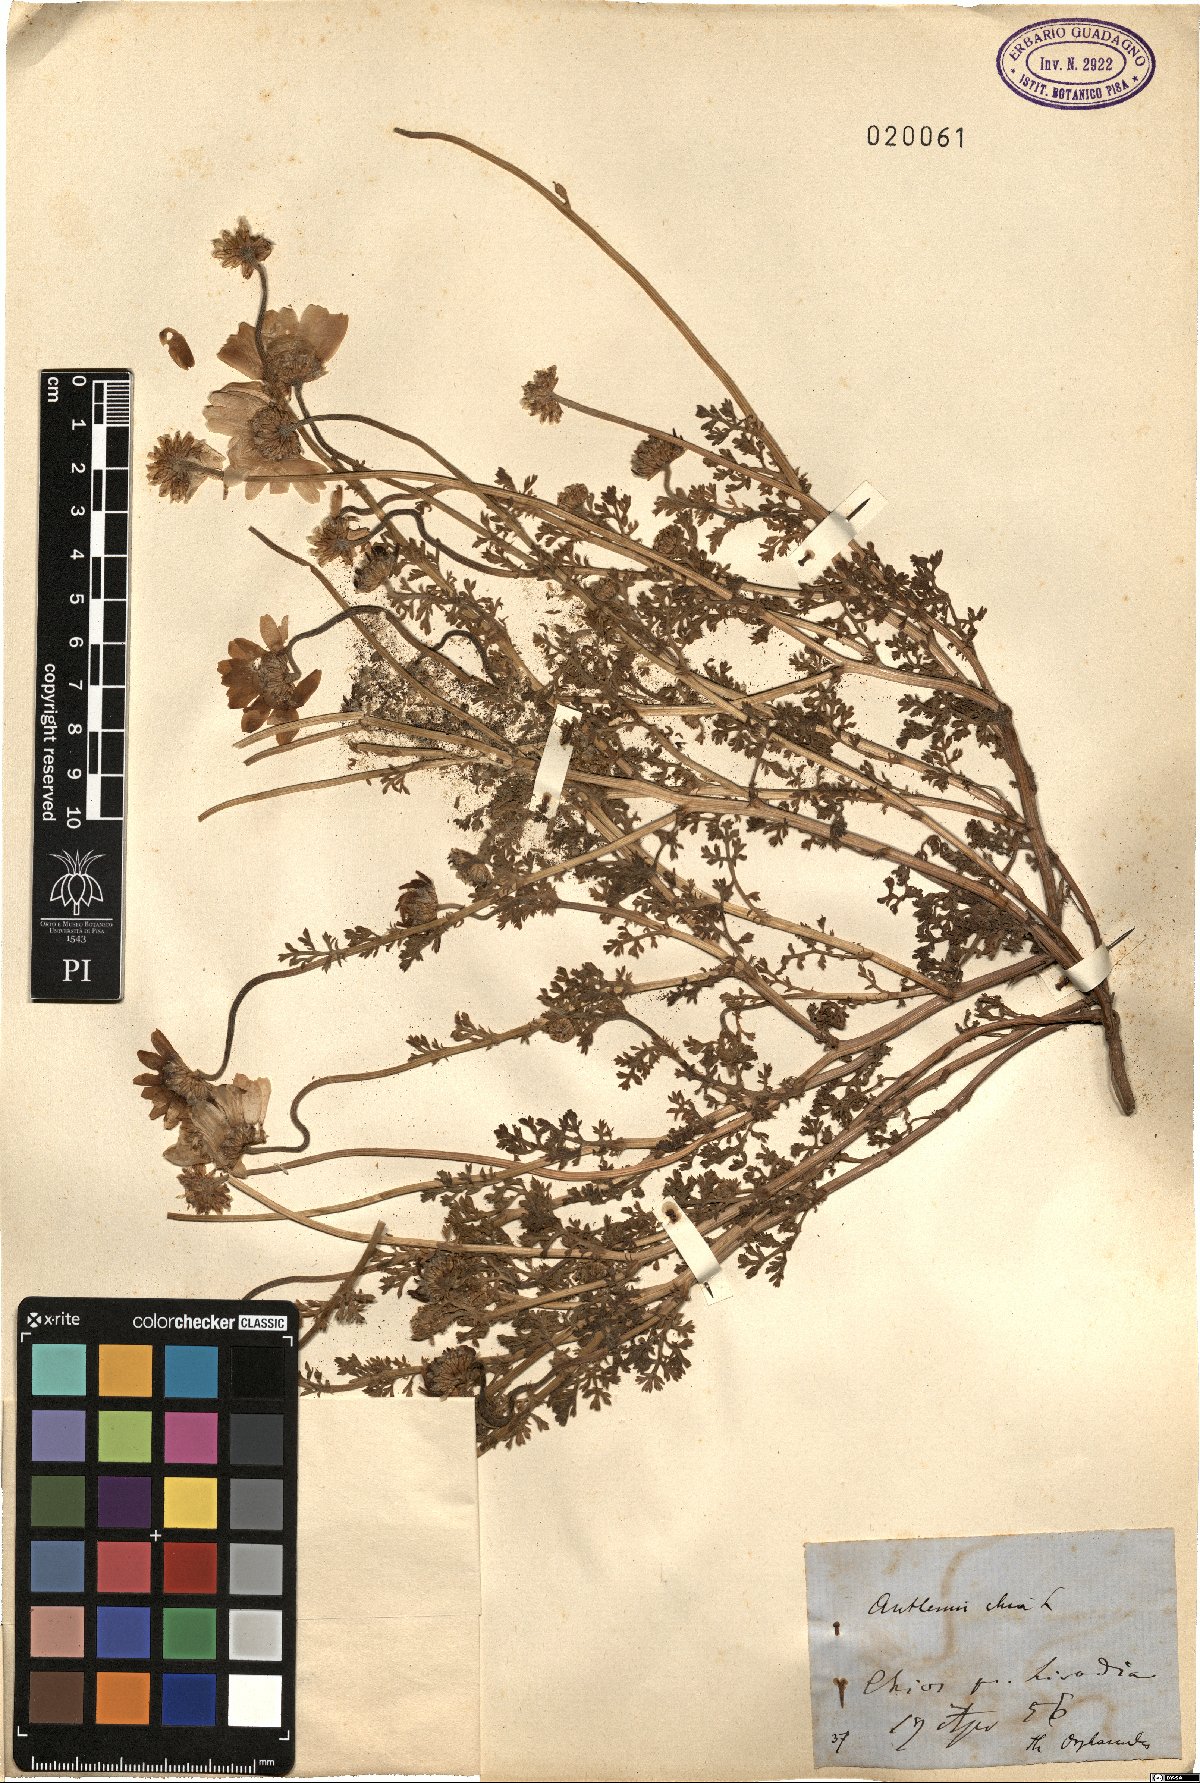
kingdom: Plantae
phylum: Tracheophyta
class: Magnoliopsida
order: Asterales
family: Asteraceae
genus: Anthemis
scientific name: Anthemis chia
